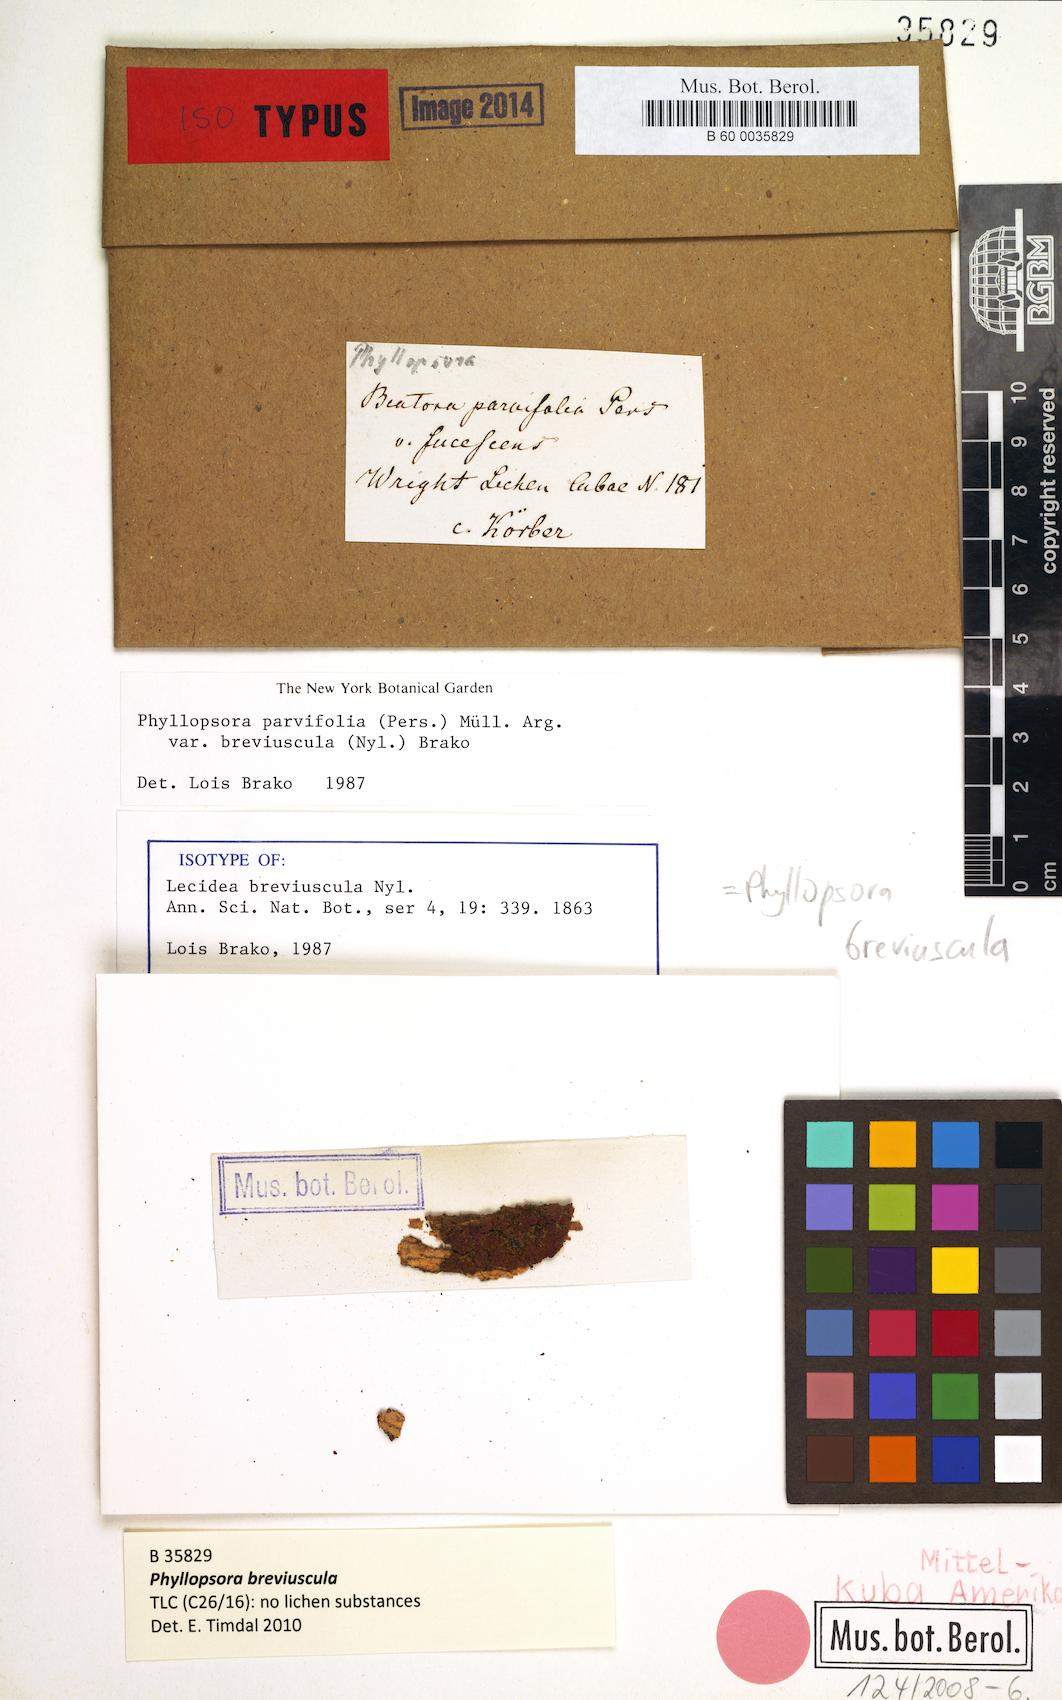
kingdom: Fungi
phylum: Ascomycota
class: Lecanoromycetes
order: Lecanorales
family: Ramalinaceae
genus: Phyllopsora
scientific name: Phyllopsora breviuscula
